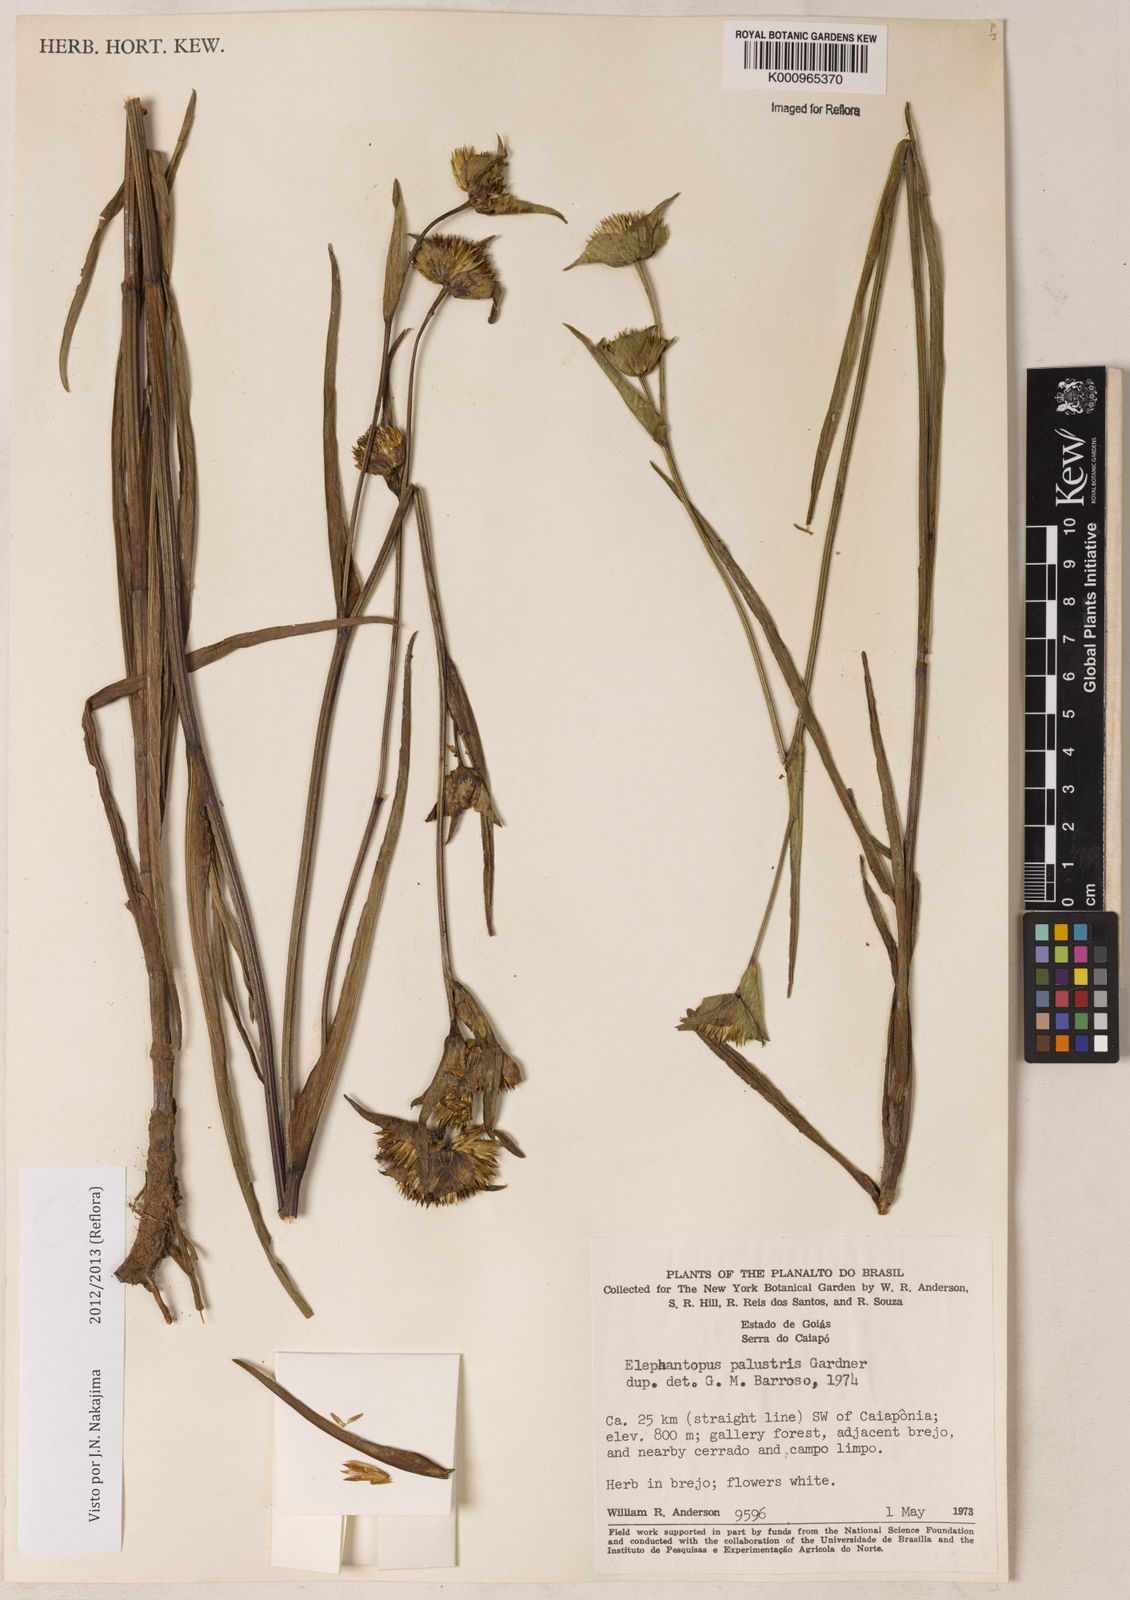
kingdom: Plantae
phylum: Tracheophyta
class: Magnoliopsida
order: Asterales
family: Asteraceae
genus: Elephantopus
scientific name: Elephantopus palustris
